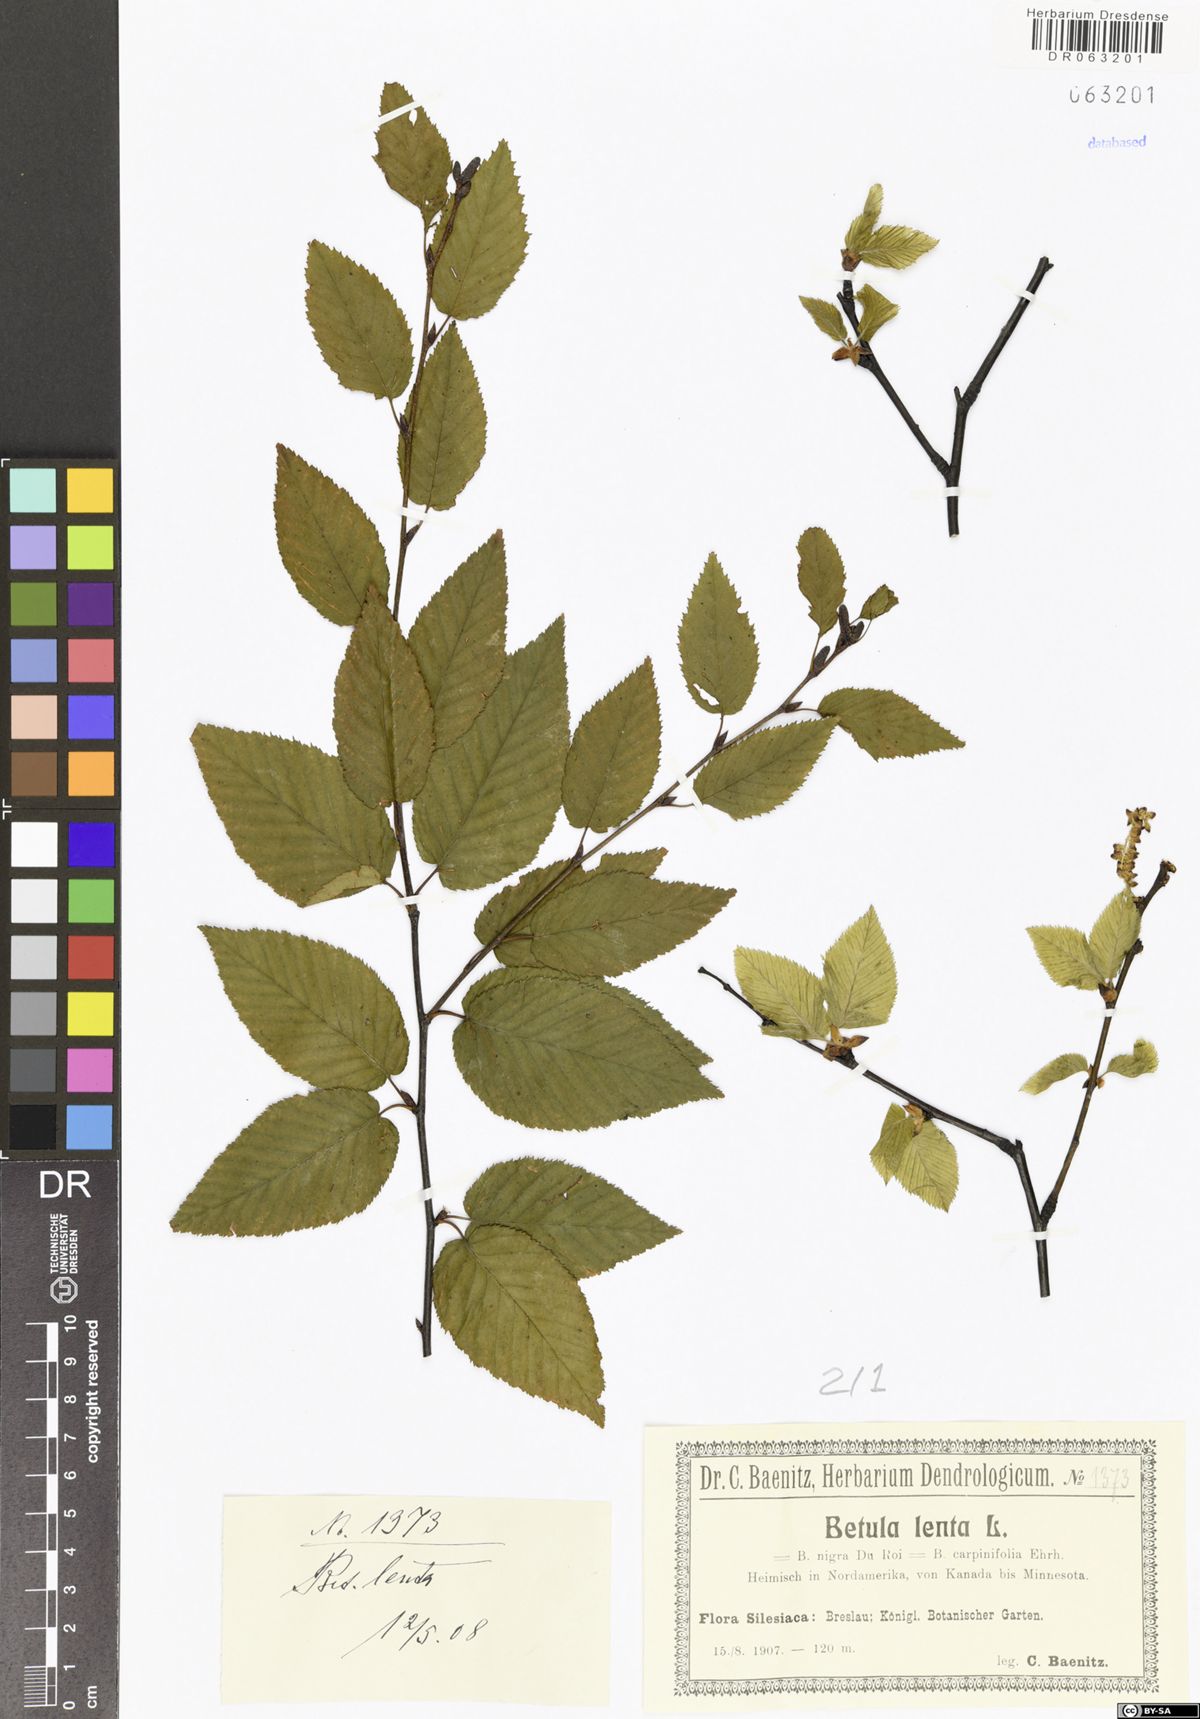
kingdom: Plantae
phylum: Tracheophyta
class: Magnoliopsida
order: Fagales
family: Betulaceae
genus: Betula
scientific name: Betula lenta
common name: Black birch
